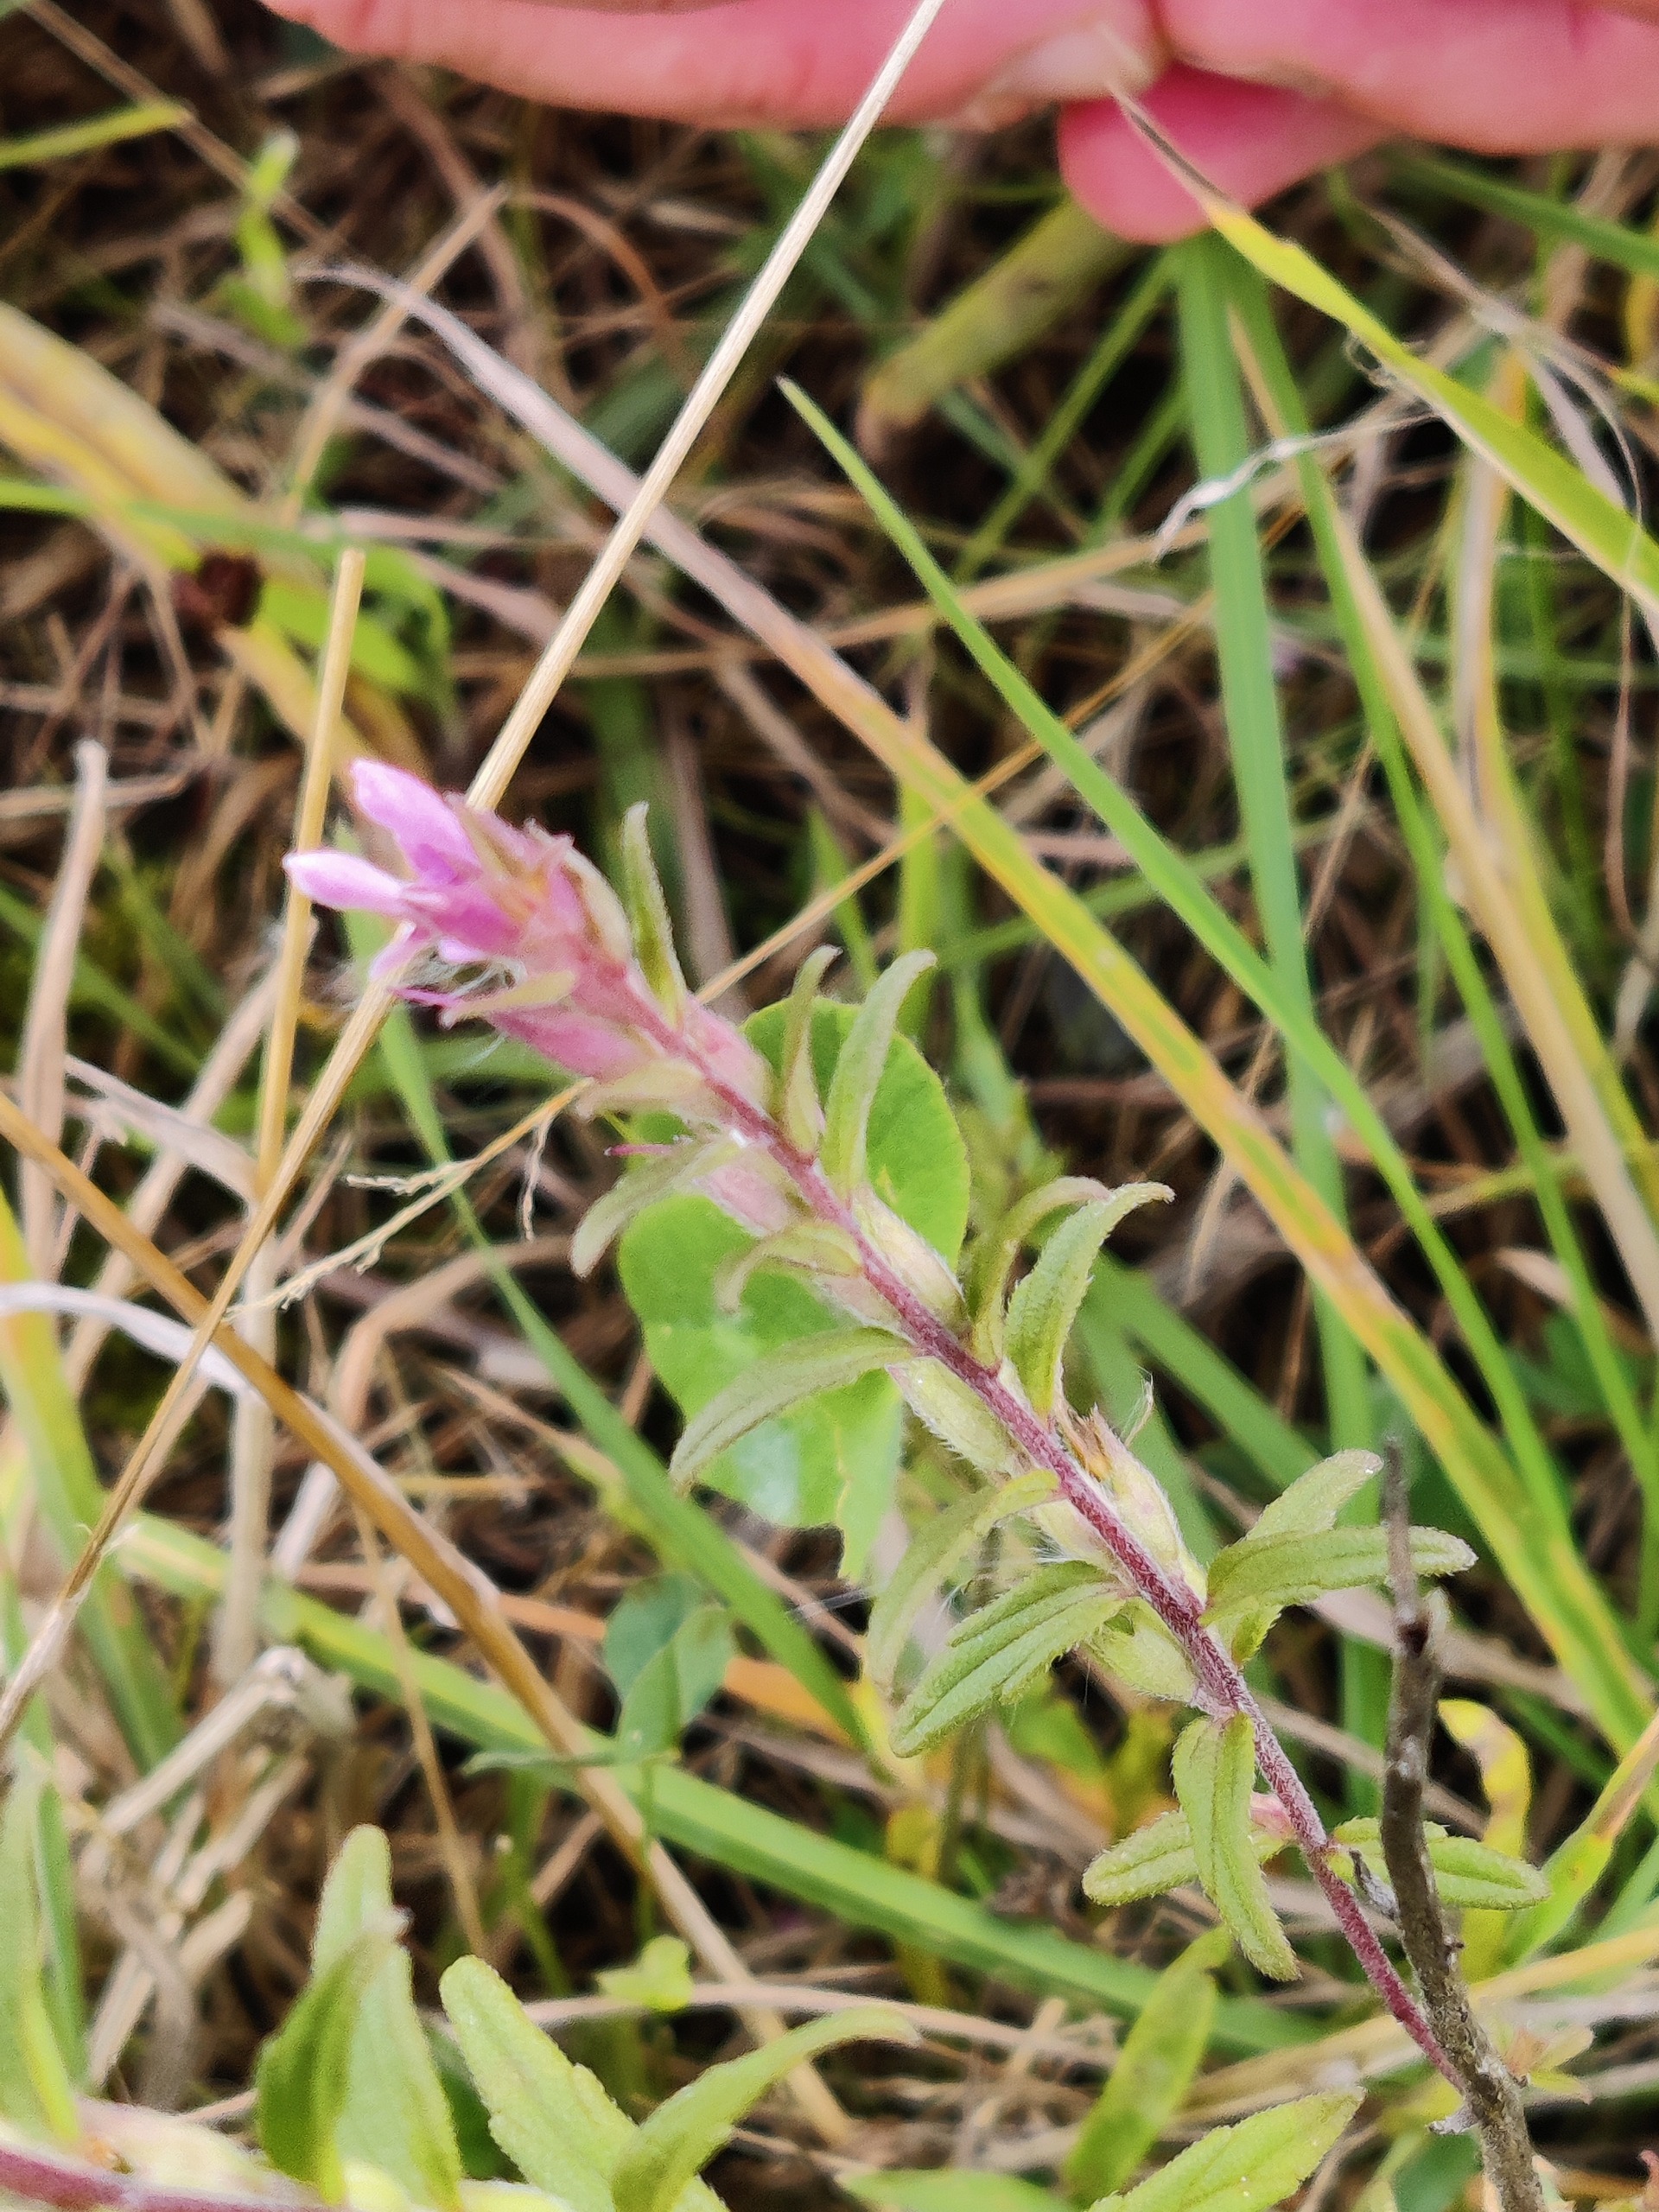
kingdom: Plantae
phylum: Tracheophyta
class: Magnoliopsida
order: Lamiales
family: Orobanchaceae
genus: Odontites
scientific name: Odontites vulgaris
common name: Høst-rødtop
